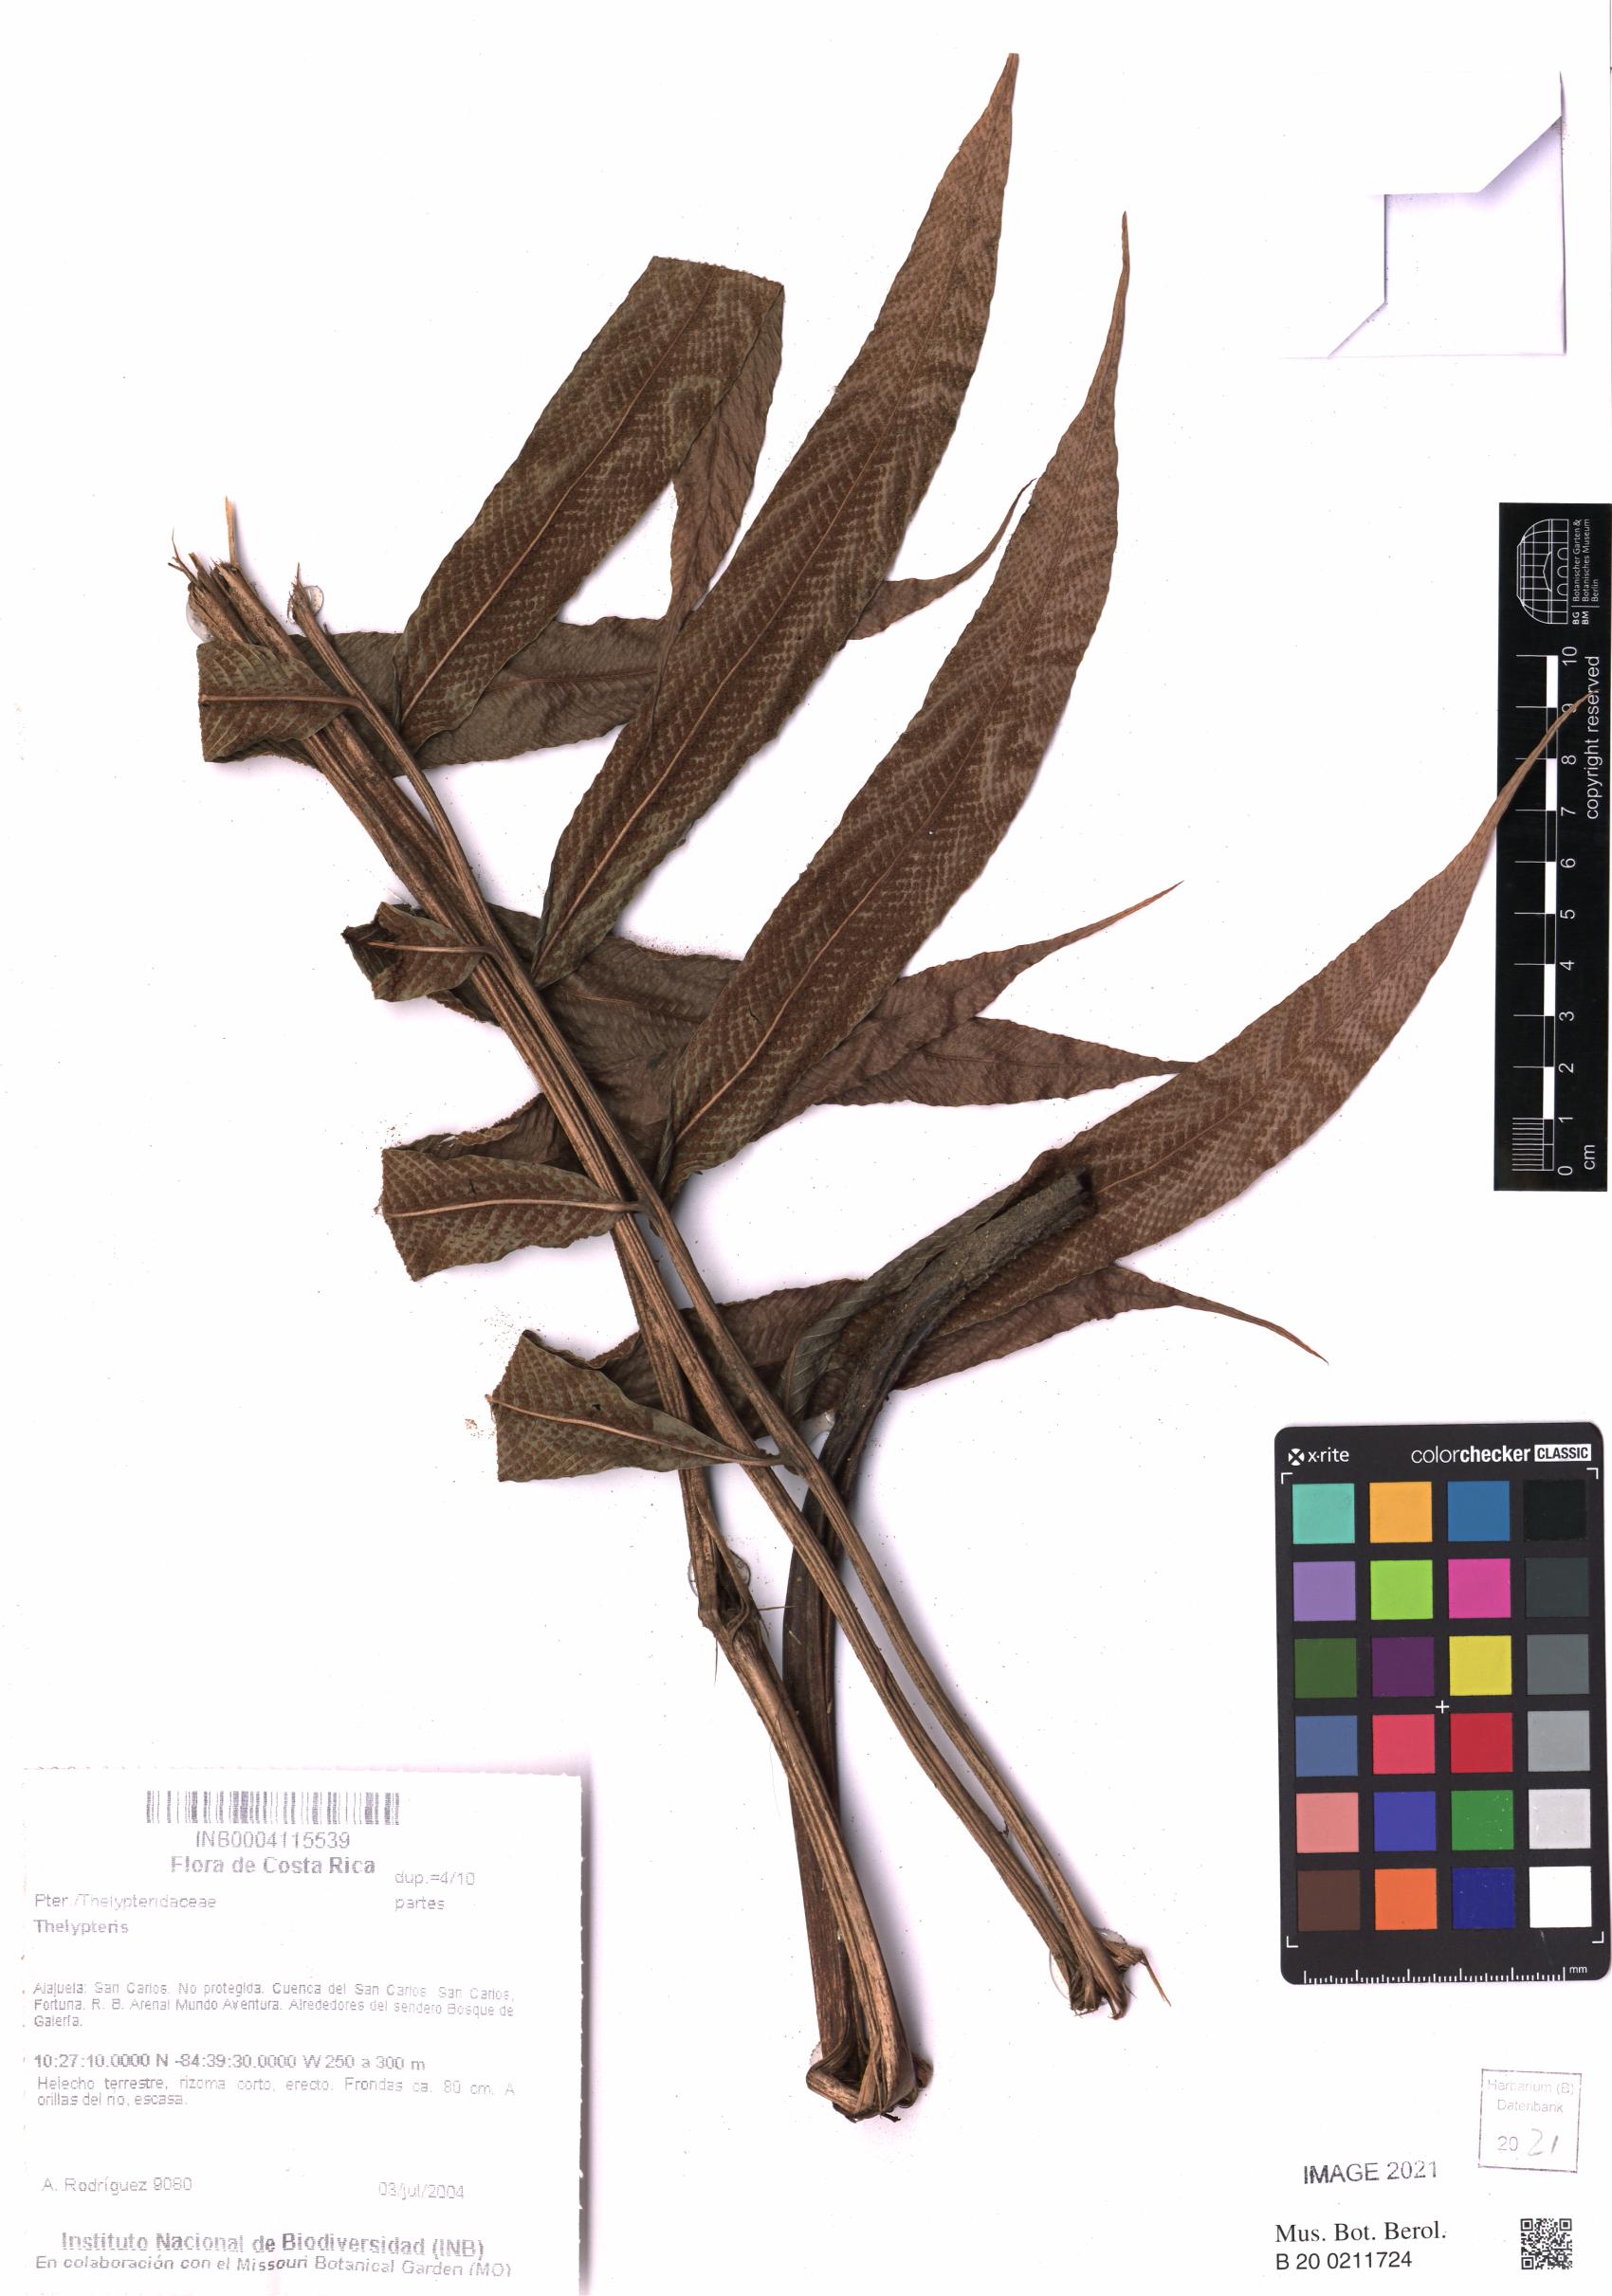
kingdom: Plantae
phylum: Tracheophyta
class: Polypodiopsida
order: Polypodiales
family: Thelypteridaceae
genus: Meniscium
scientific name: Meniscium arborescens
